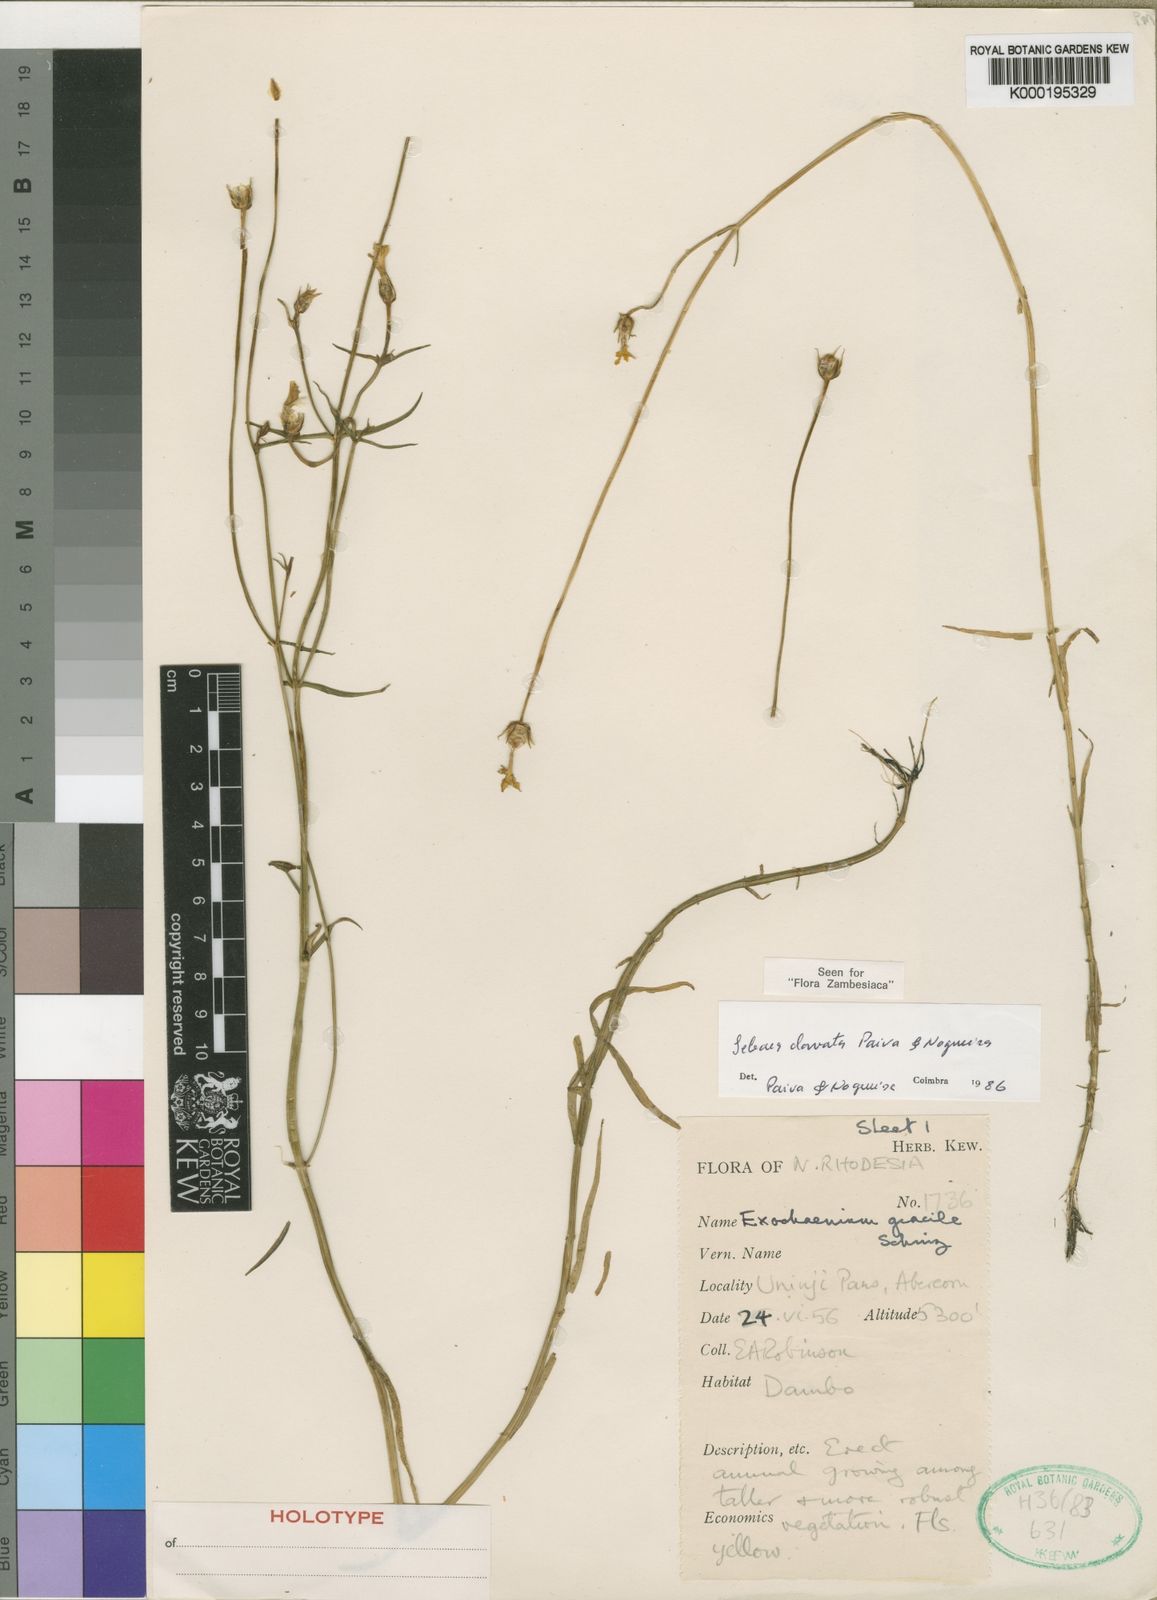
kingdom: Plantae
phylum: Tracheophyta
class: Magnoliopsida
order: Gentianales
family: Gentianaceae
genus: Exochaenium
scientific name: Exochaenium clavatum
